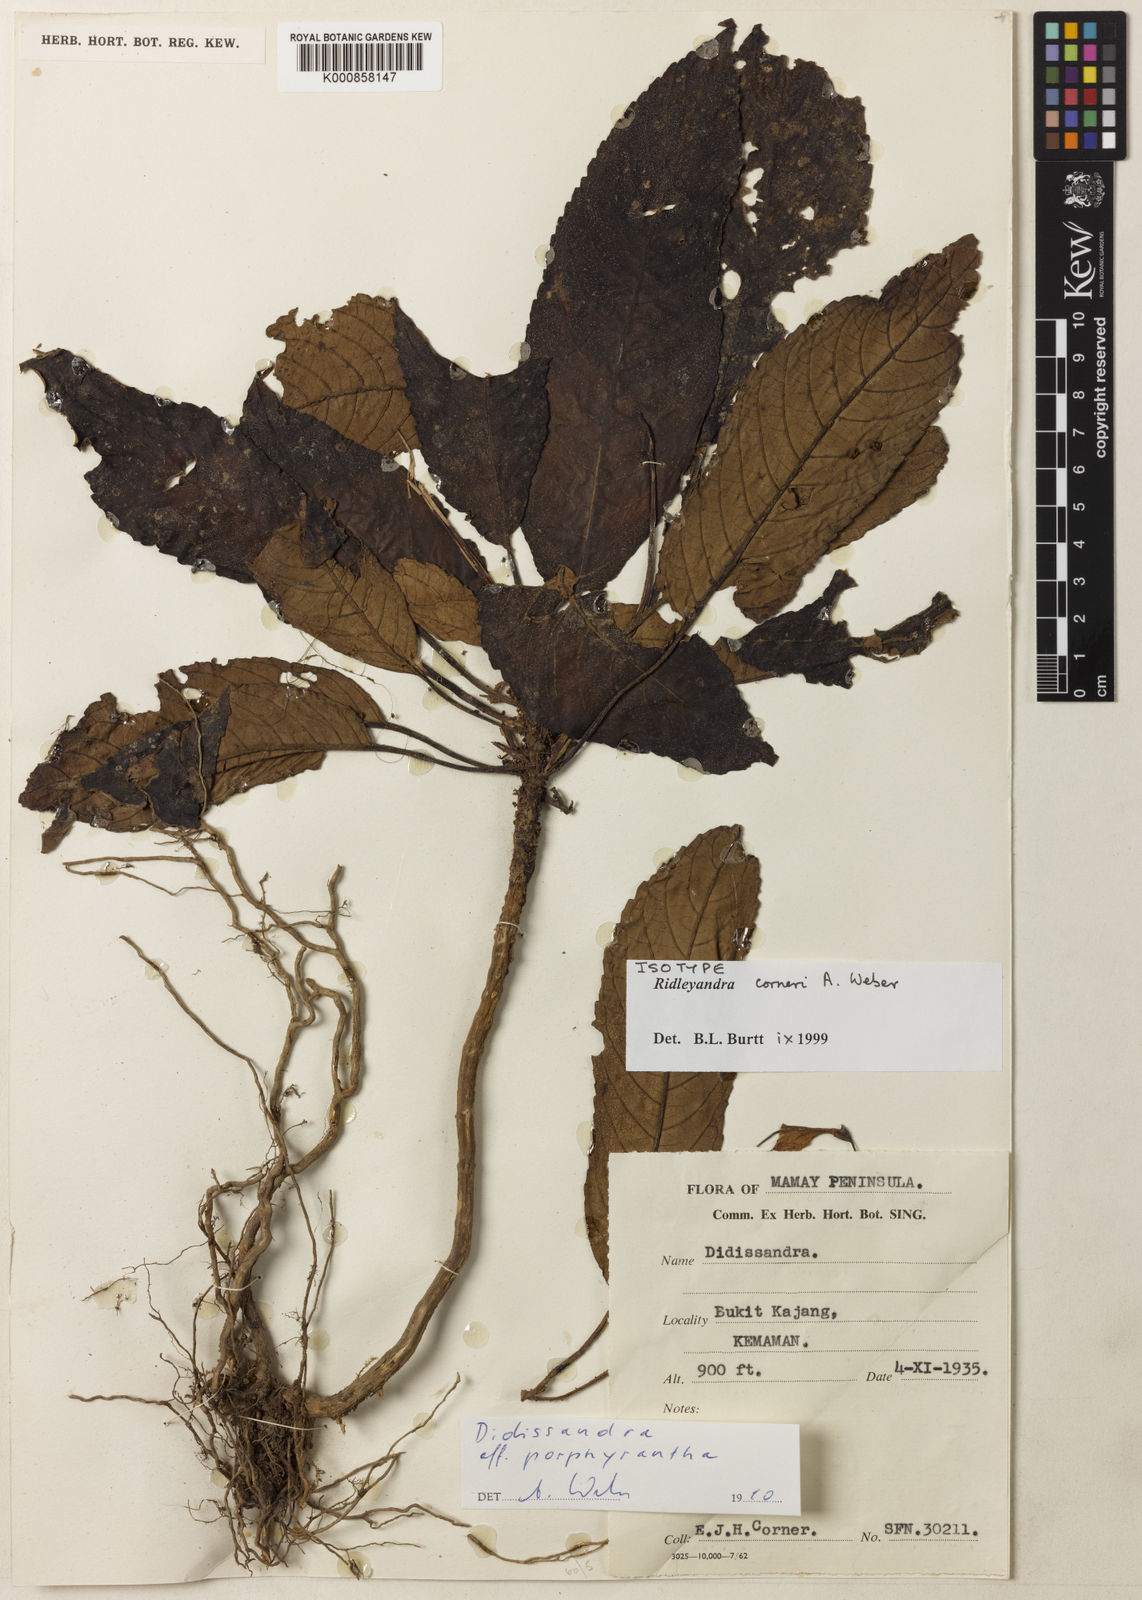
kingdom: Plantae
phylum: Tracheophyta
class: Magnoliopsida
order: Lamiales
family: Gesneriaceae
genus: Ridleyandra
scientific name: Ridleyandra corneri
